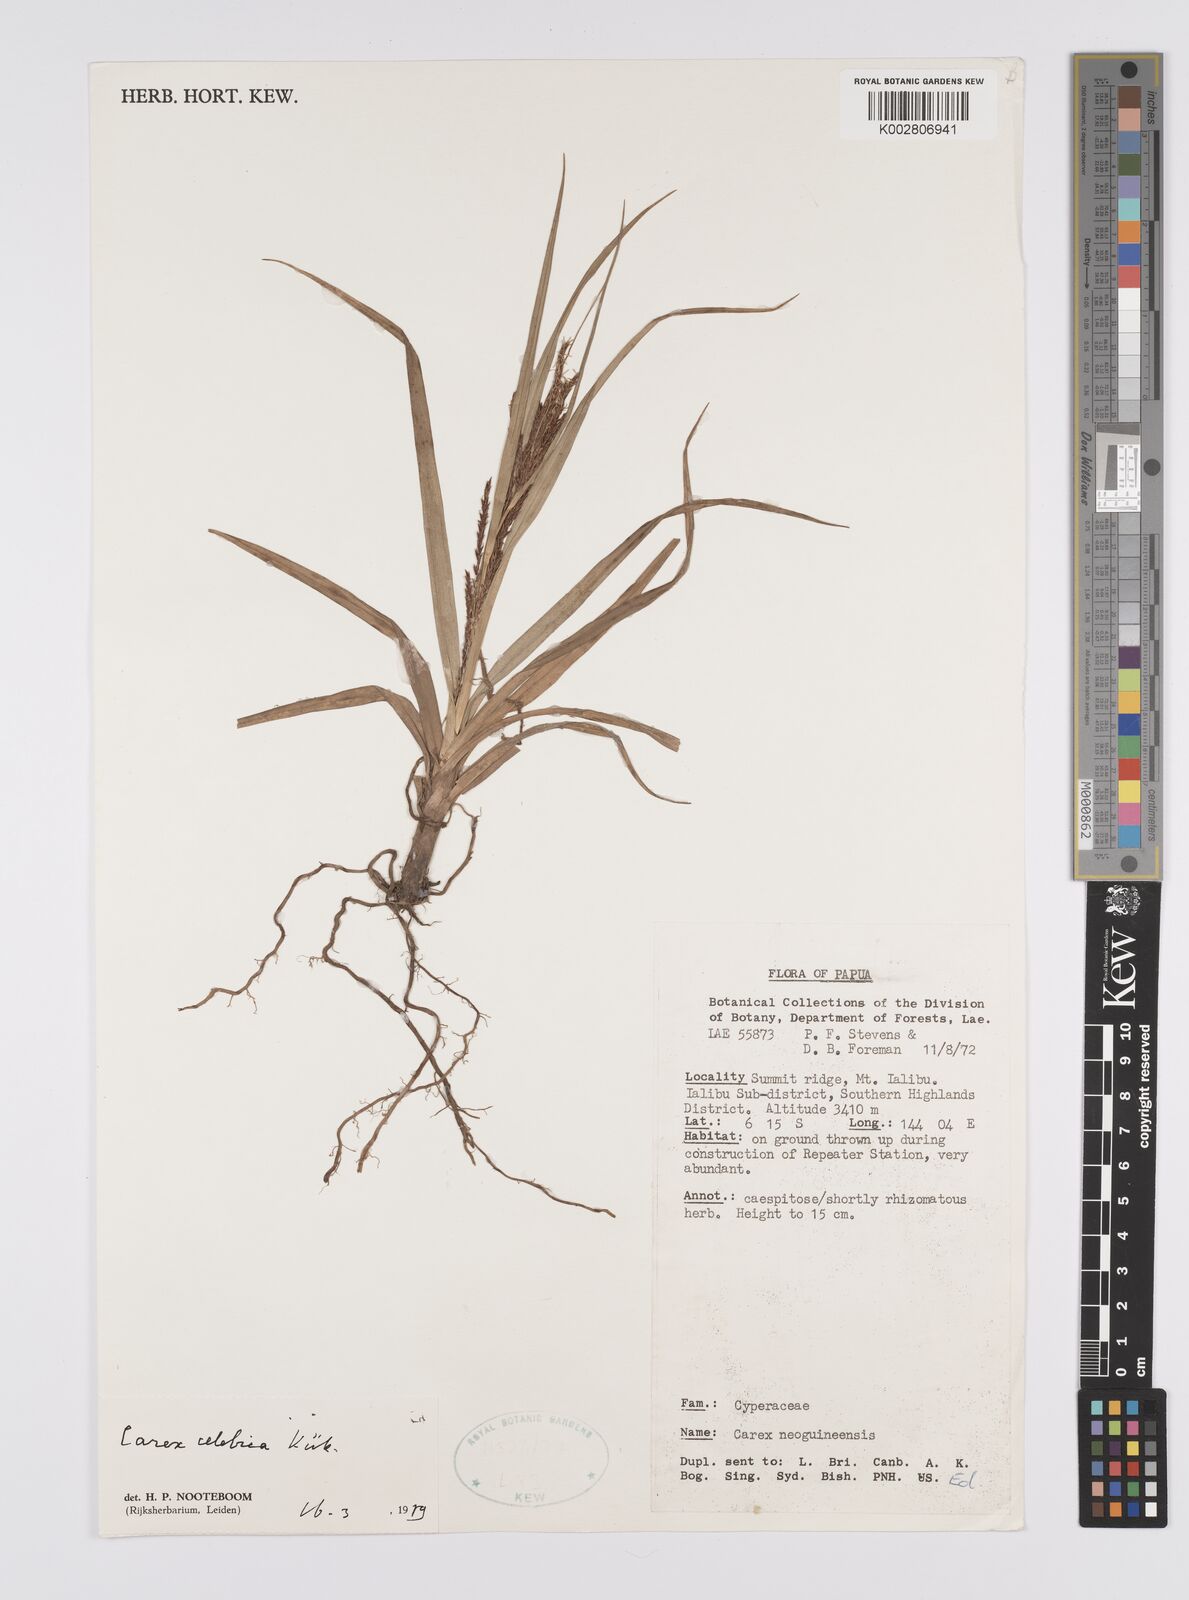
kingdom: Plantae
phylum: Tracheophyta
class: Liliopsida
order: Poales
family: Cyperaceae
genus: Carex
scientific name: Carex celebica
